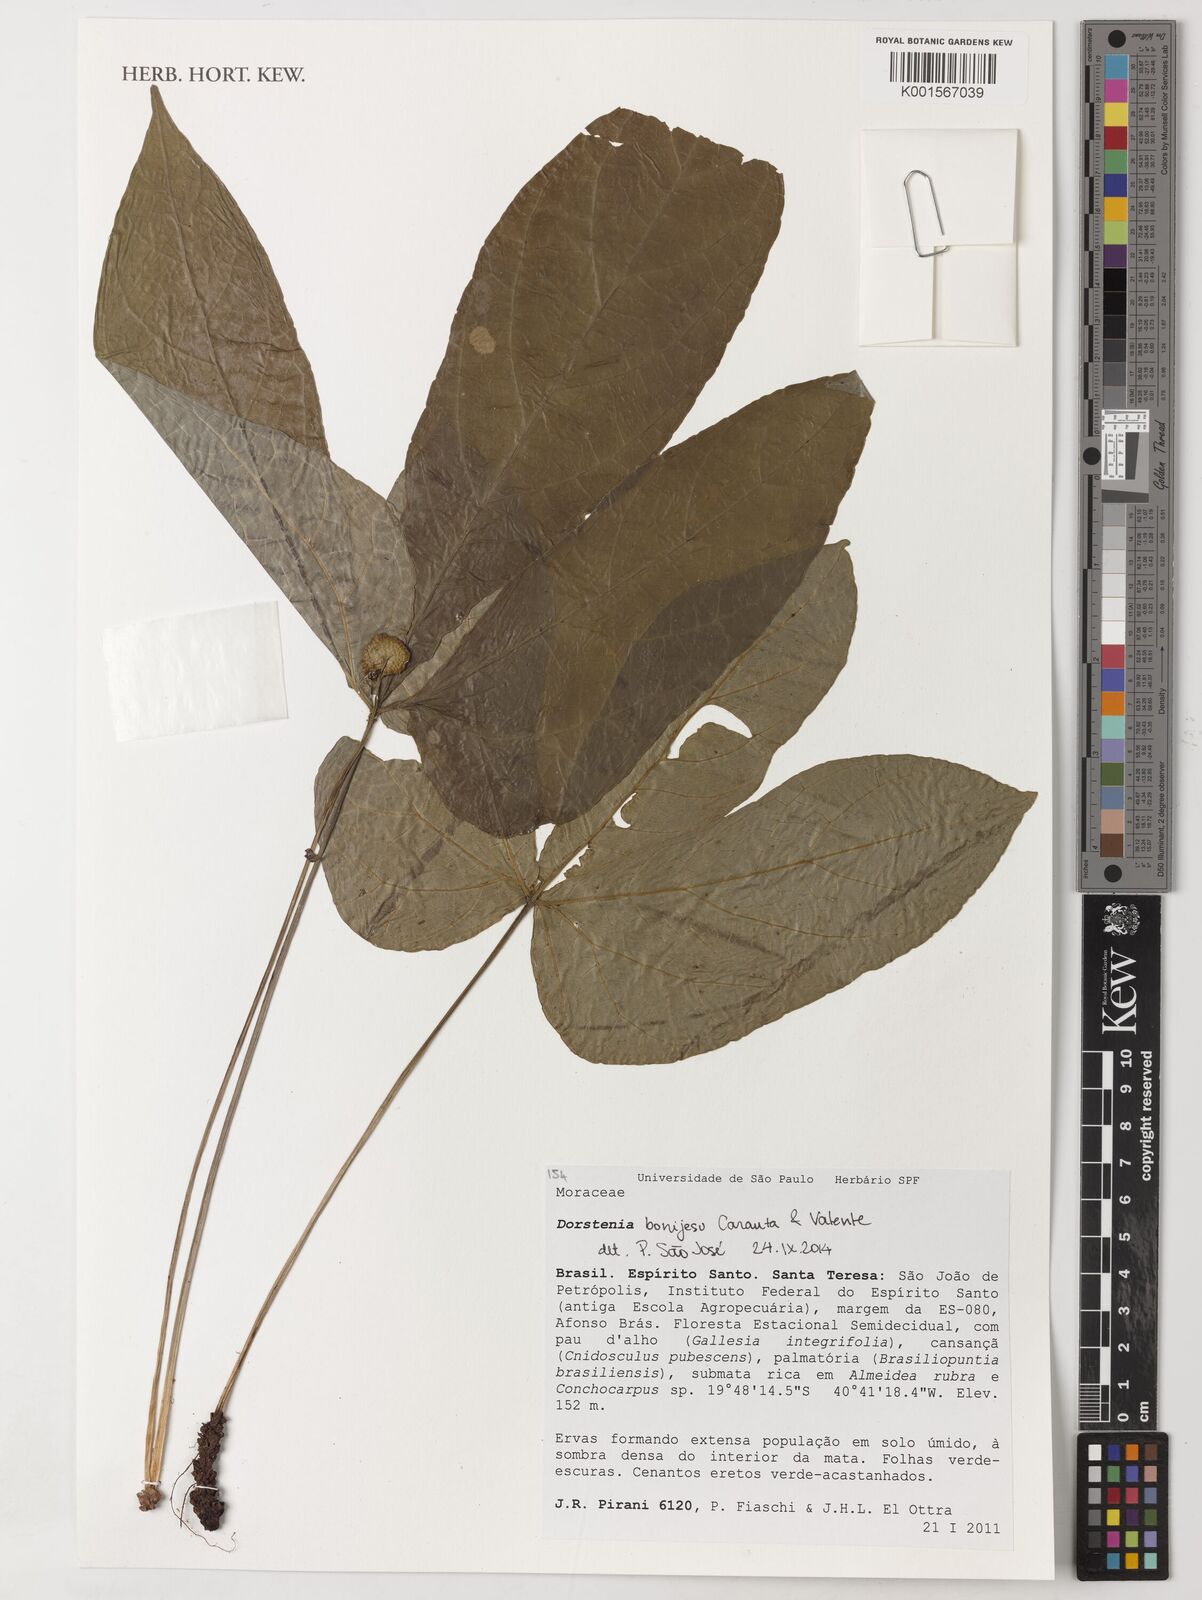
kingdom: Plantae
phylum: Tracheophyta
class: Magnoliopsida
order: Rosales
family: Moraceae
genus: Dorstenia
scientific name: Dorstenia bonijesu
